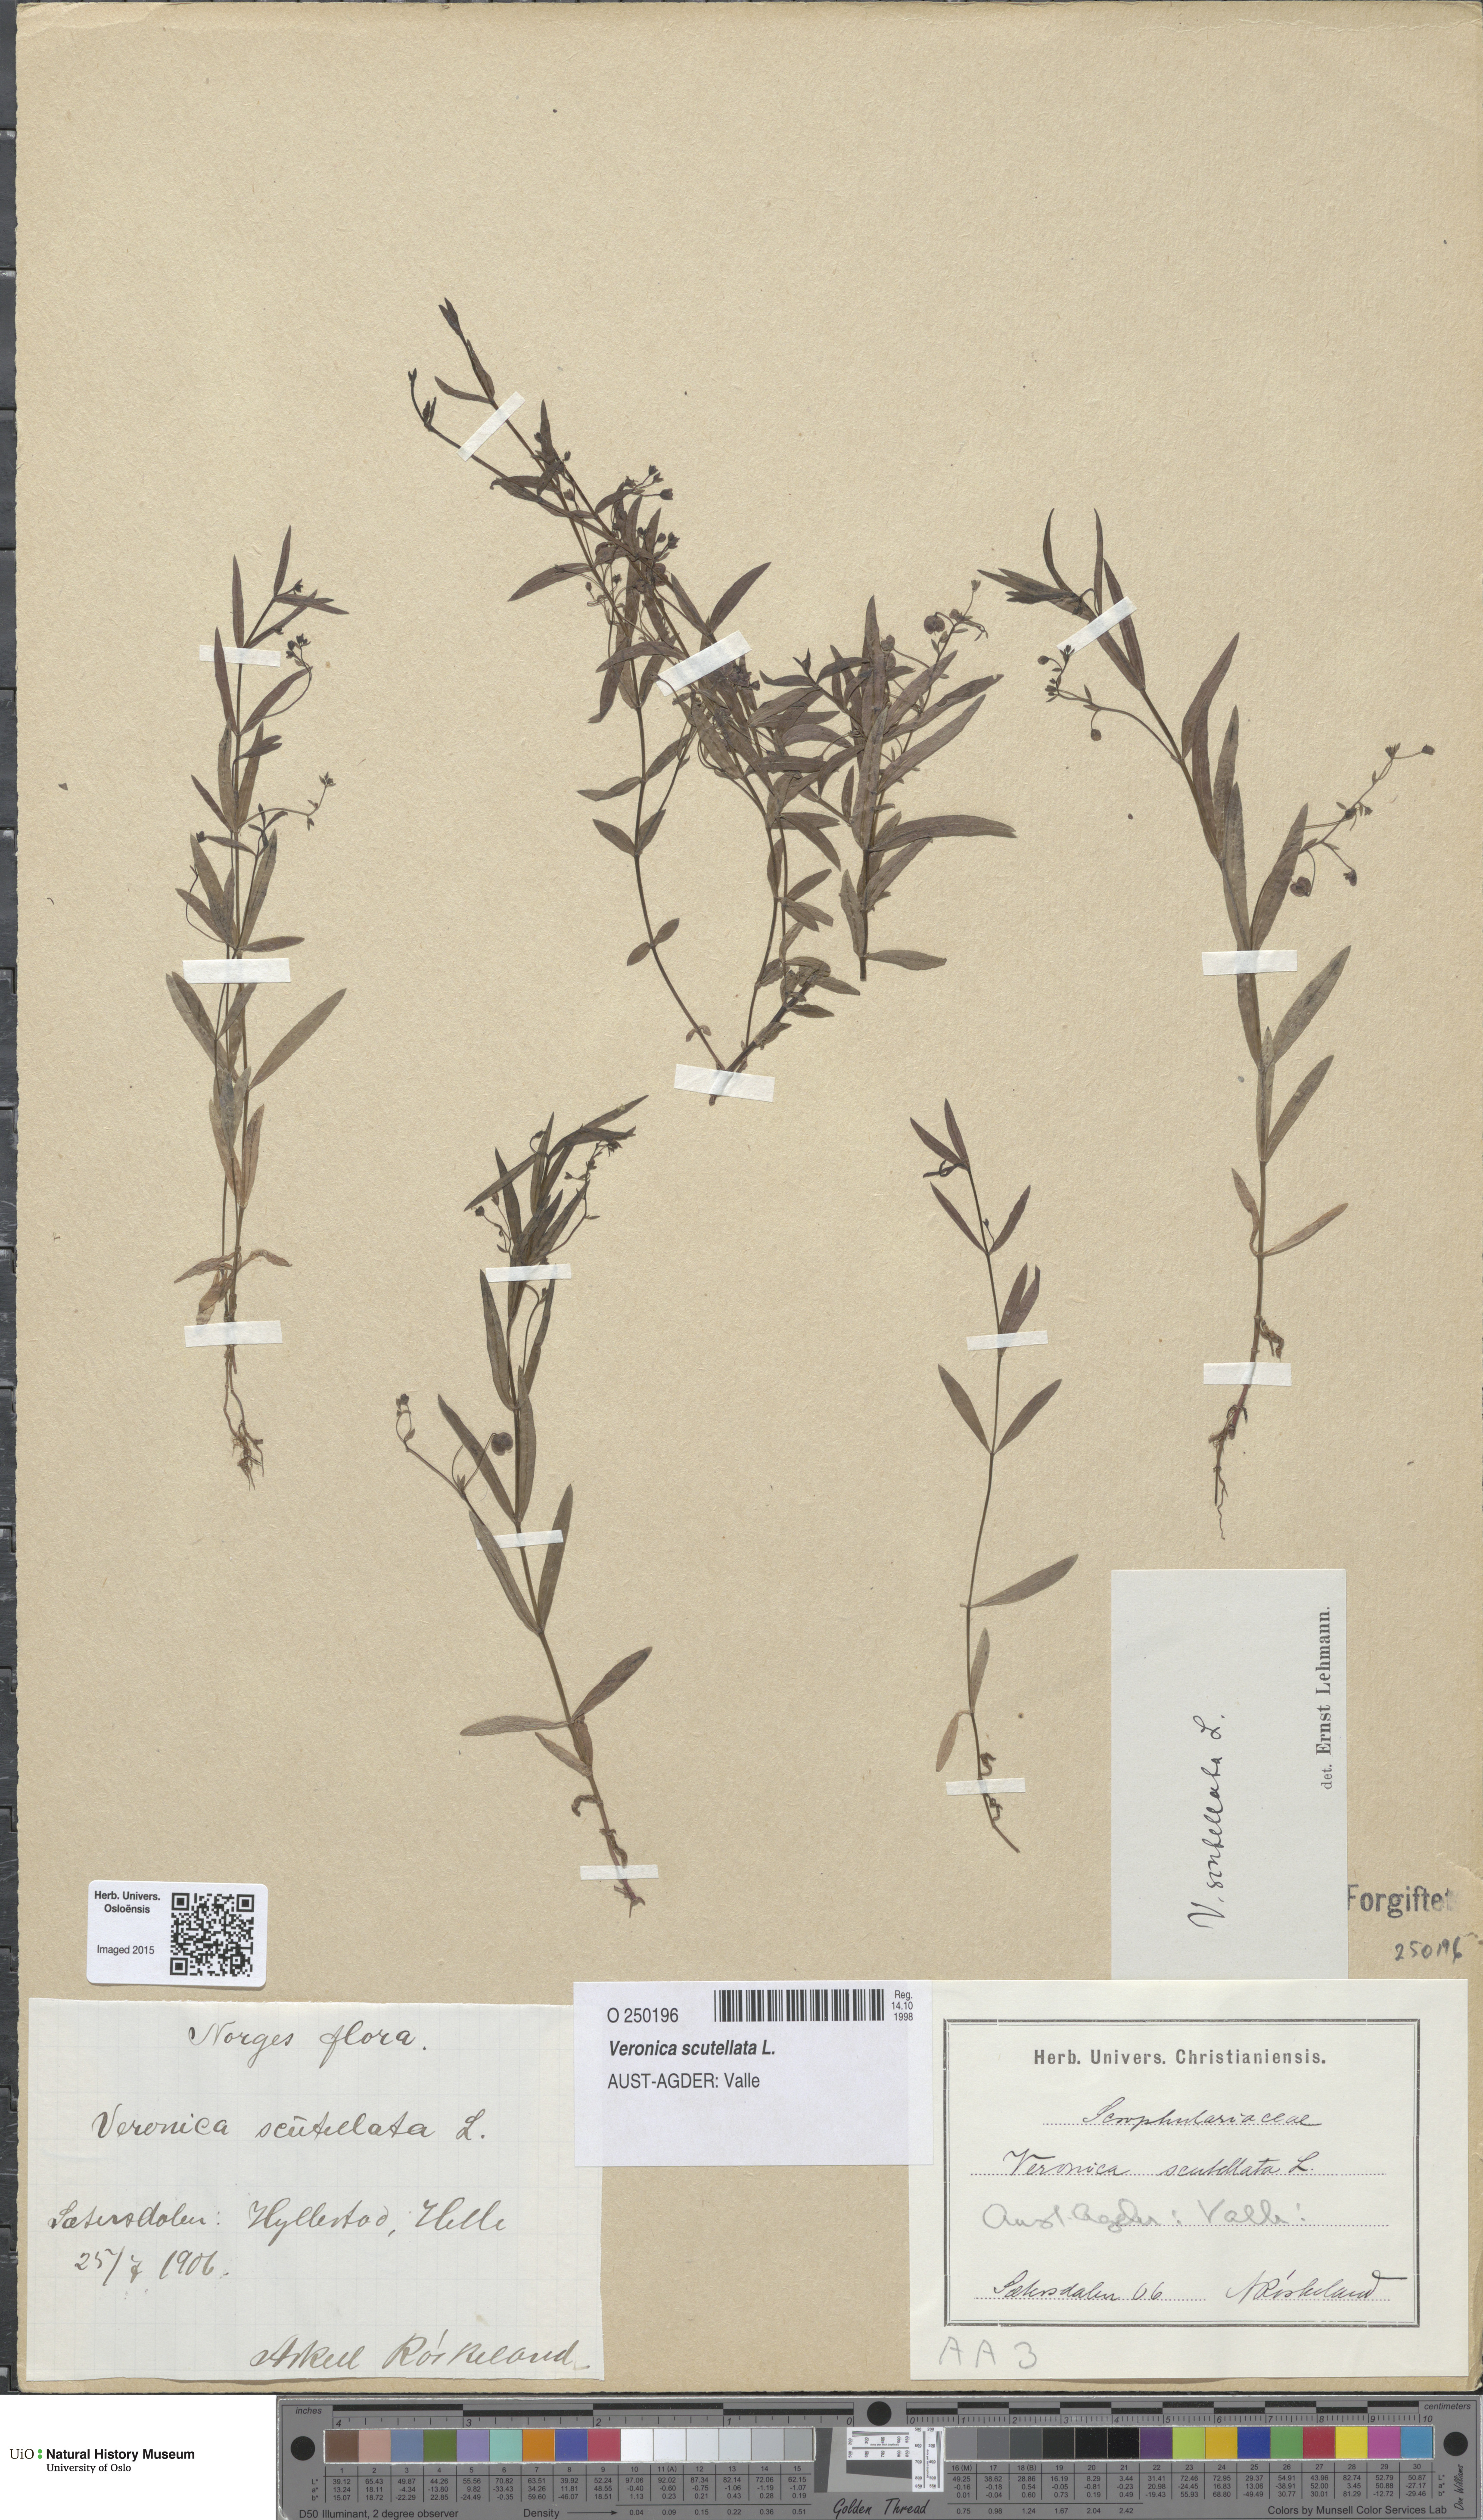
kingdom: Plantae
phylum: Tracheophyta
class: Magnoliopsida
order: Lamiales
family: Plantaginaceae
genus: Veronica
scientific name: Veronica scutellata
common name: Marsh speedwell
